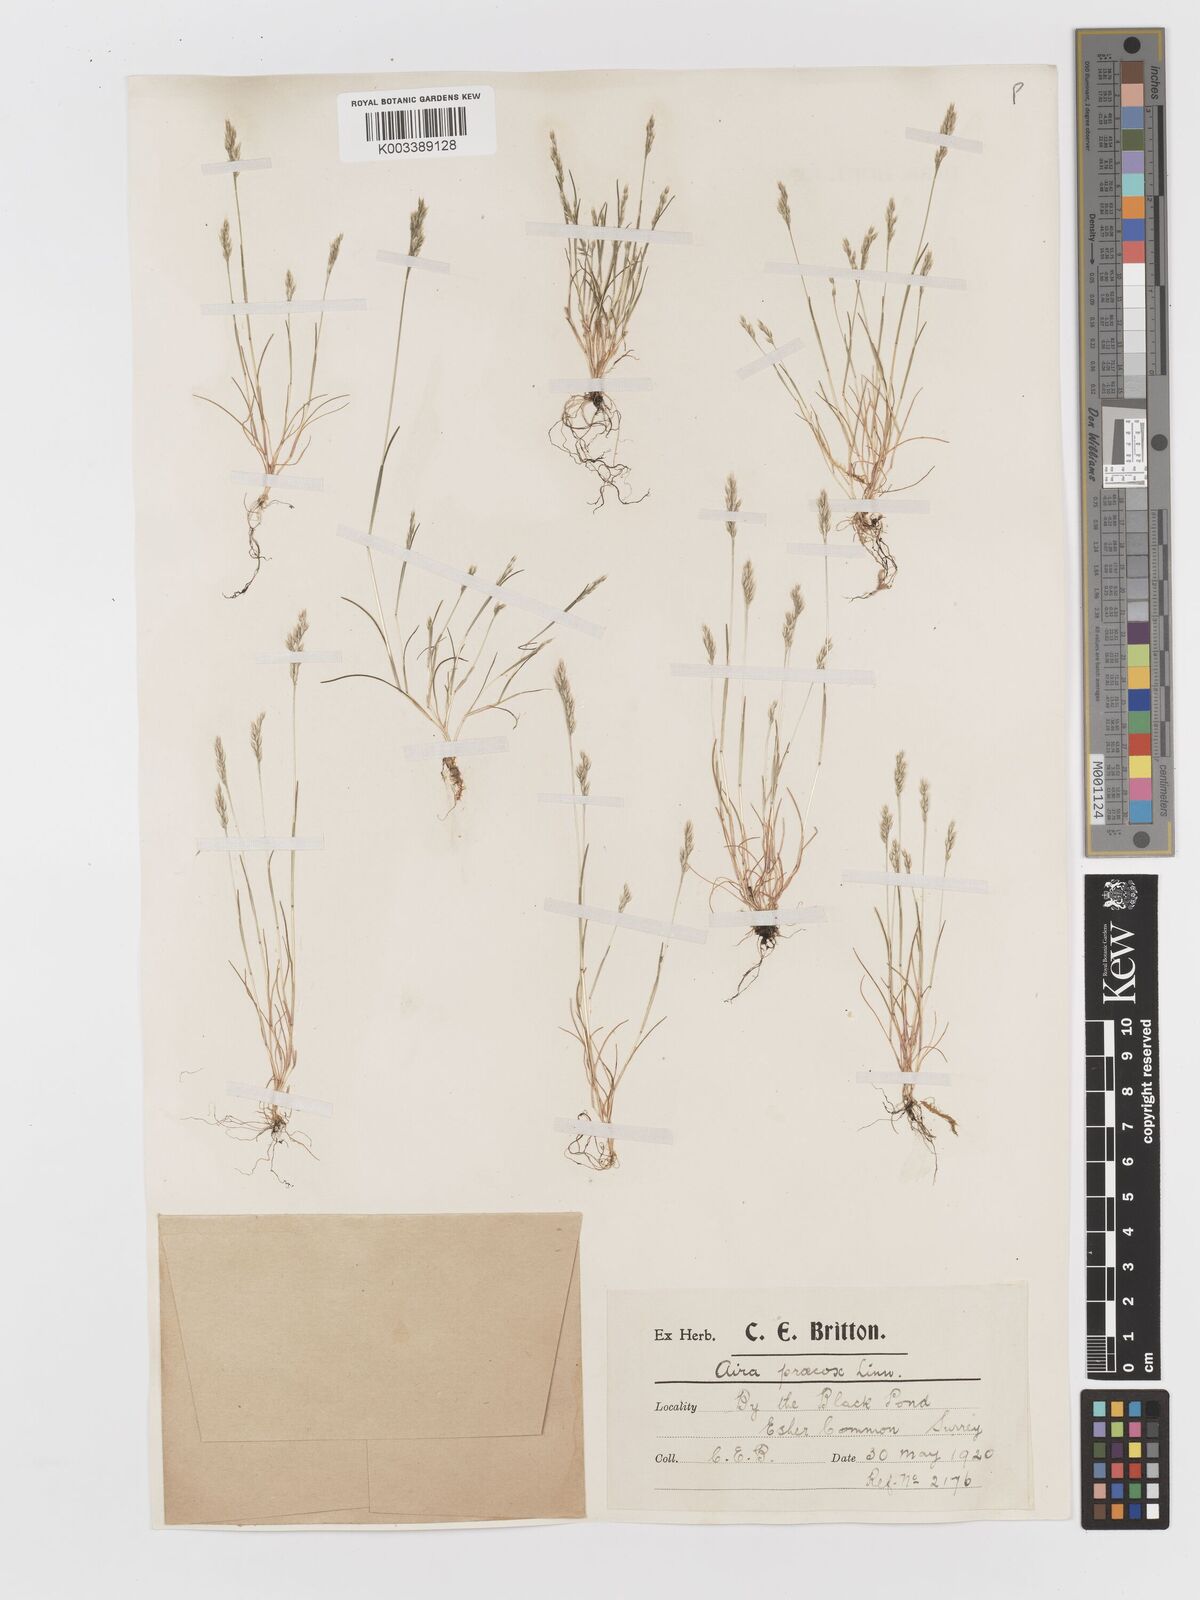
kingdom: Plantae
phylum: Tracheophyta
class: Liliopsida
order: Poales
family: Poaceae
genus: Aira
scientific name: Aira praecox
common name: Early hair-grass
